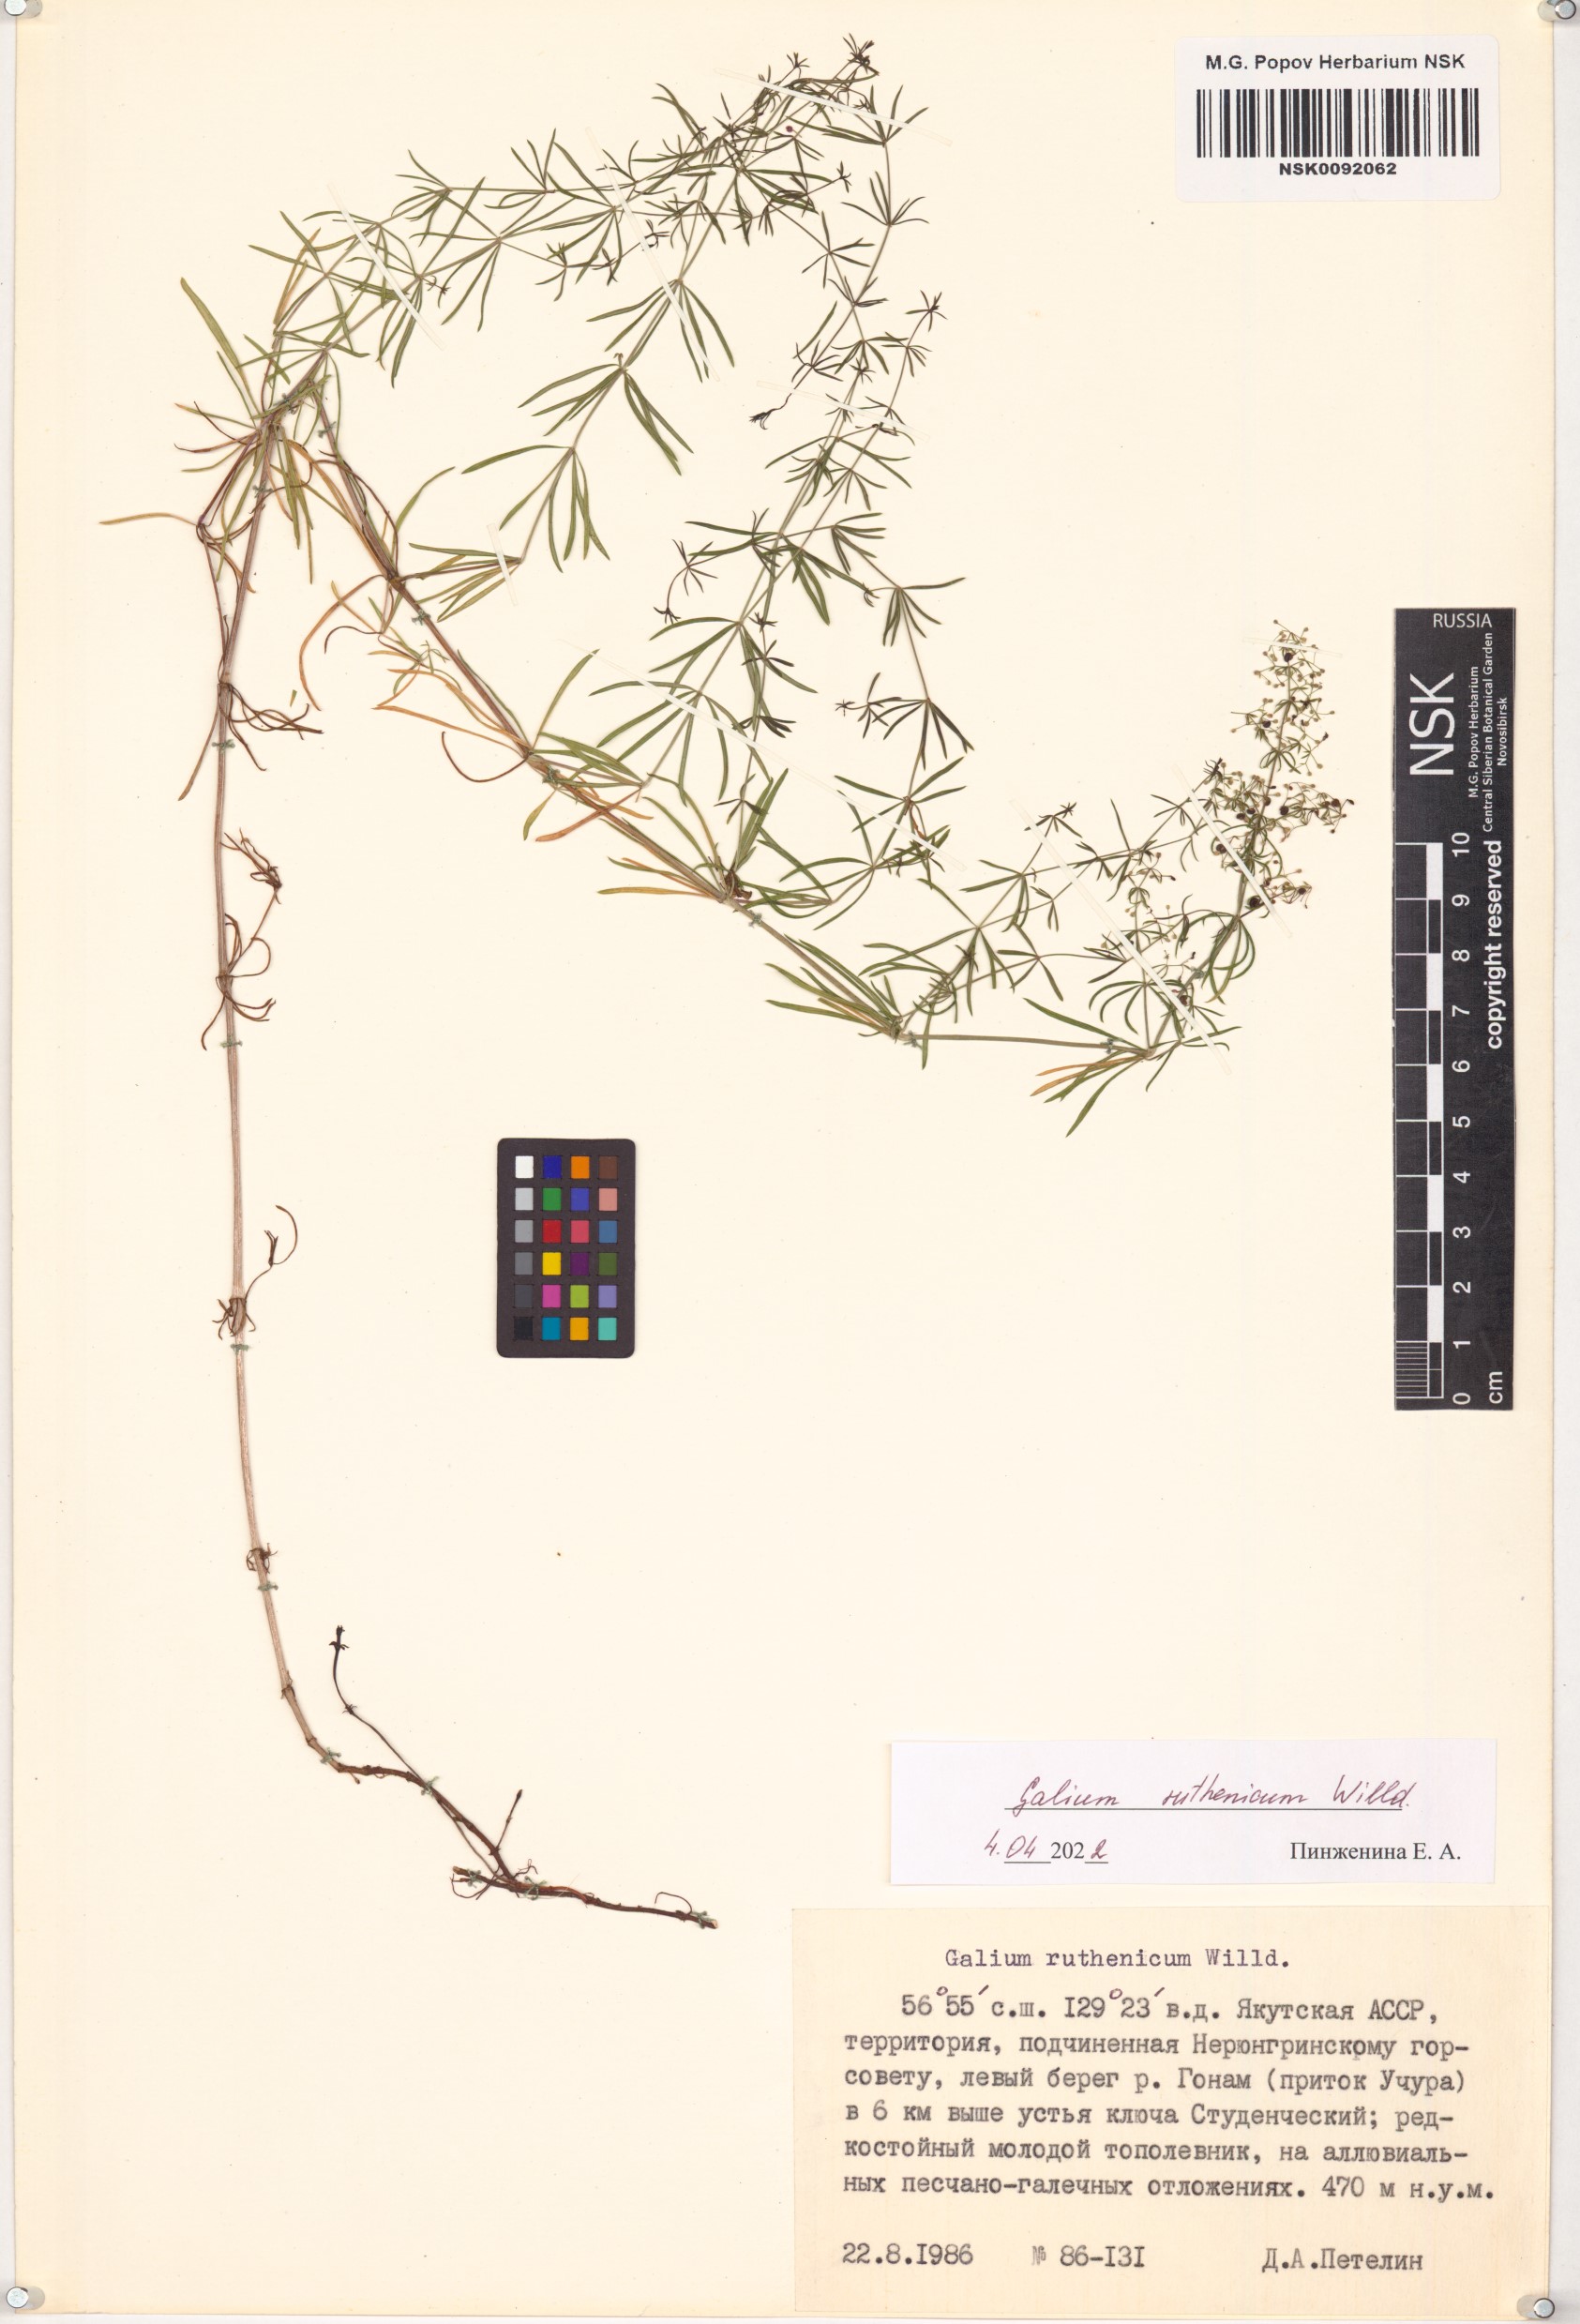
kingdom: Plantae
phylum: Tracheophyta
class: Magnoliopsida
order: Gentianales
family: Rubiaceae
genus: Galium
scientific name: Galium verum
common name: Lady's bedstraw
